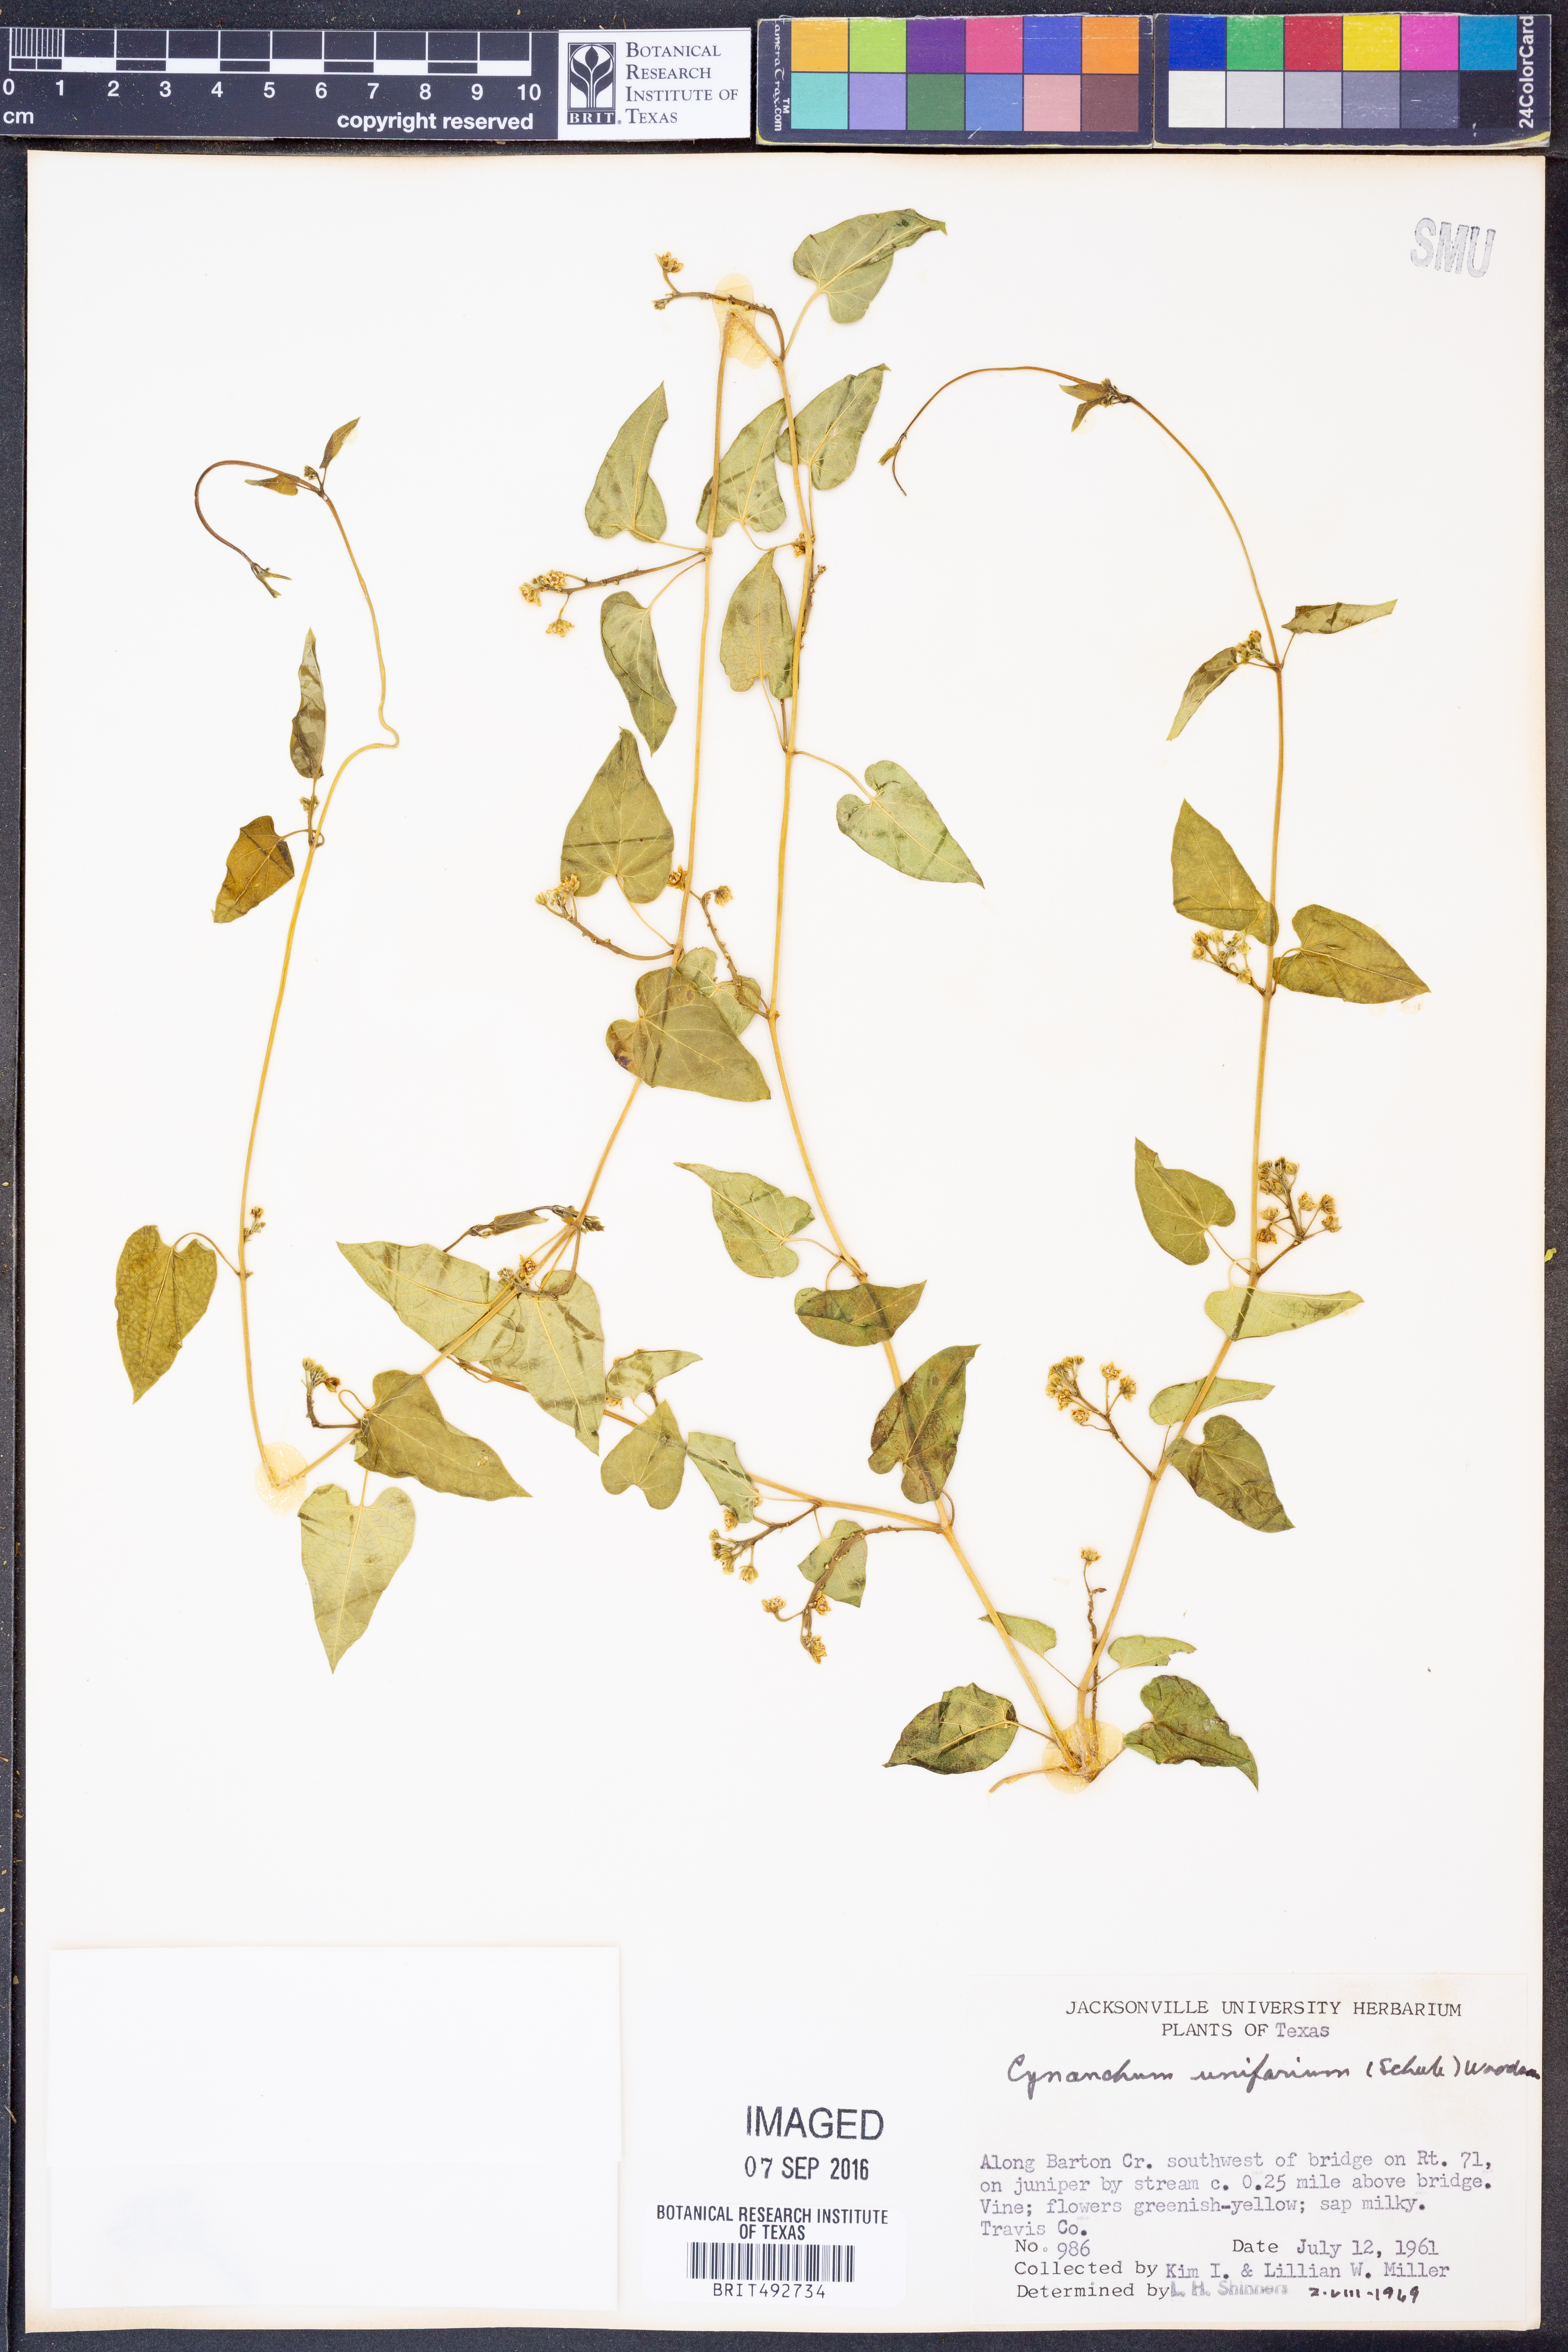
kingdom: Plantae
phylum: Tracheophyta
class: Magnoliopsida
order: Gentianales
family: Apocynaceae
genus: Cynanchum
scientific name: Cynanchum racemosum
